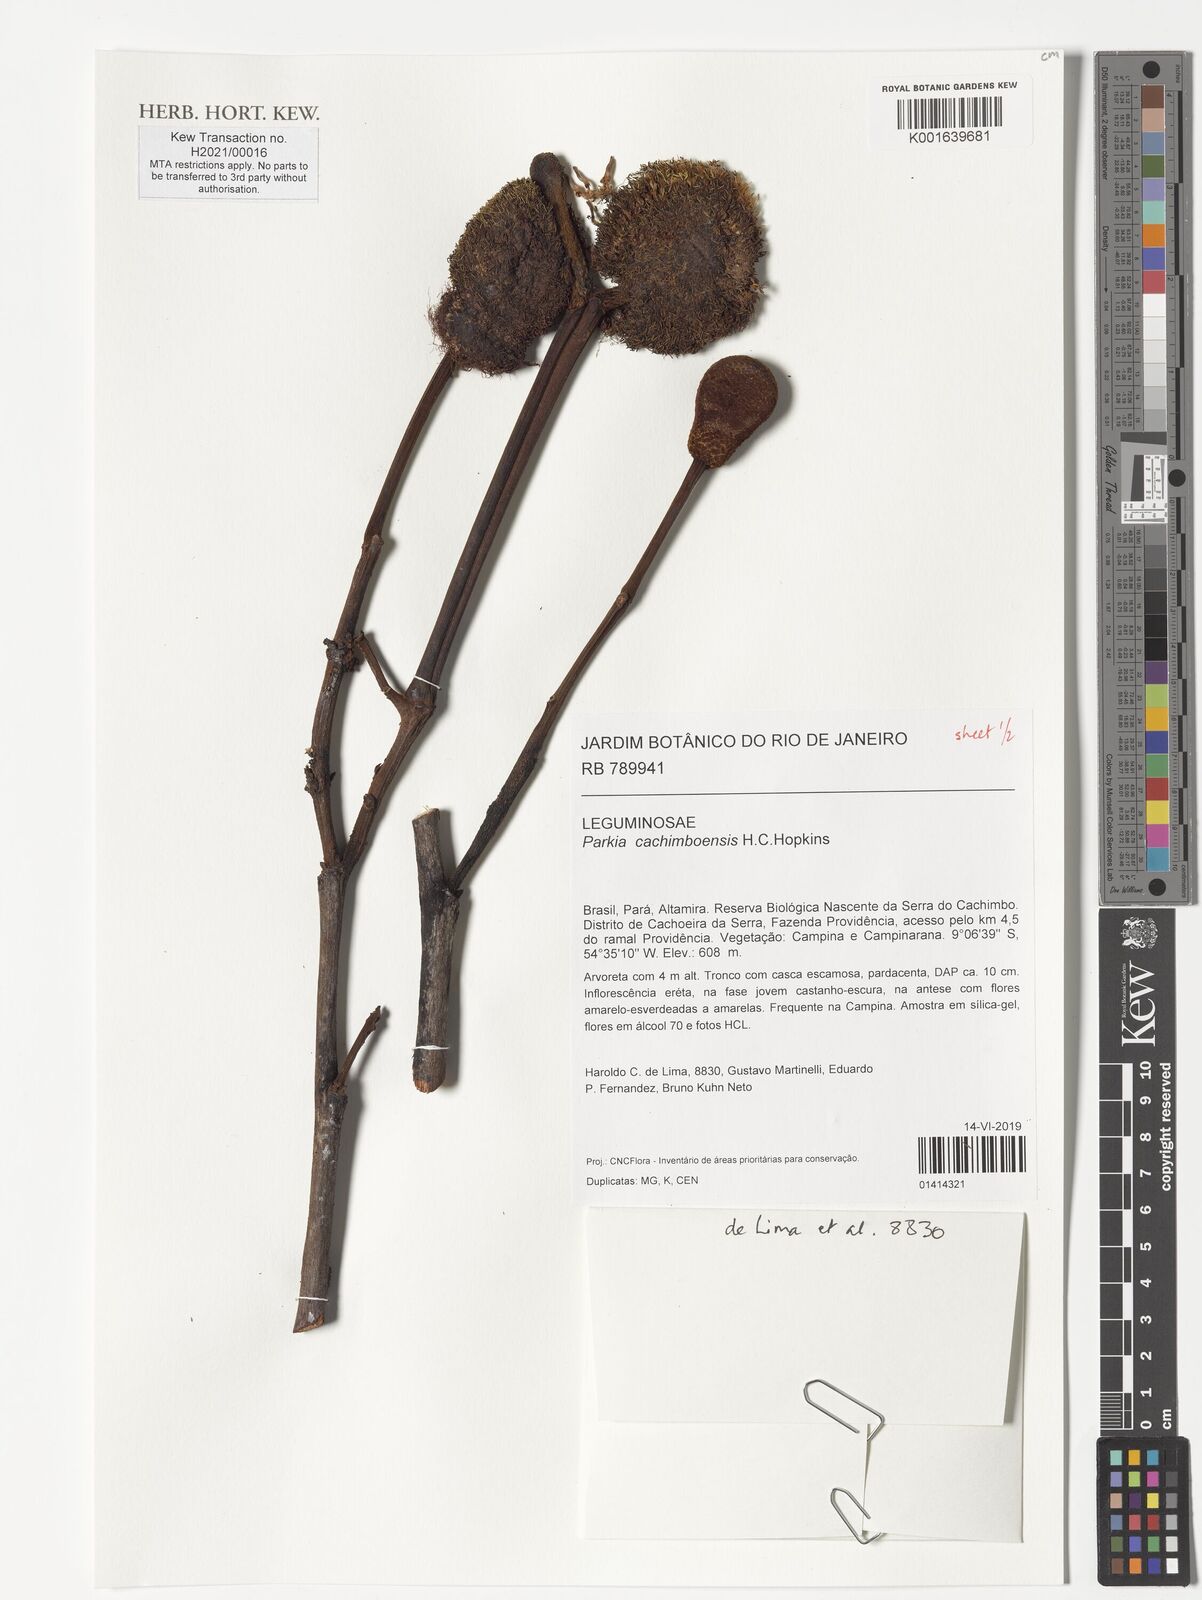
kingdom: Plantae
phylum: Tracheophyta
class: Magnoliopsida
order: Fabales
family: Fabaceae
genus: Parkia
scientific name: Parkia cachimboensis
